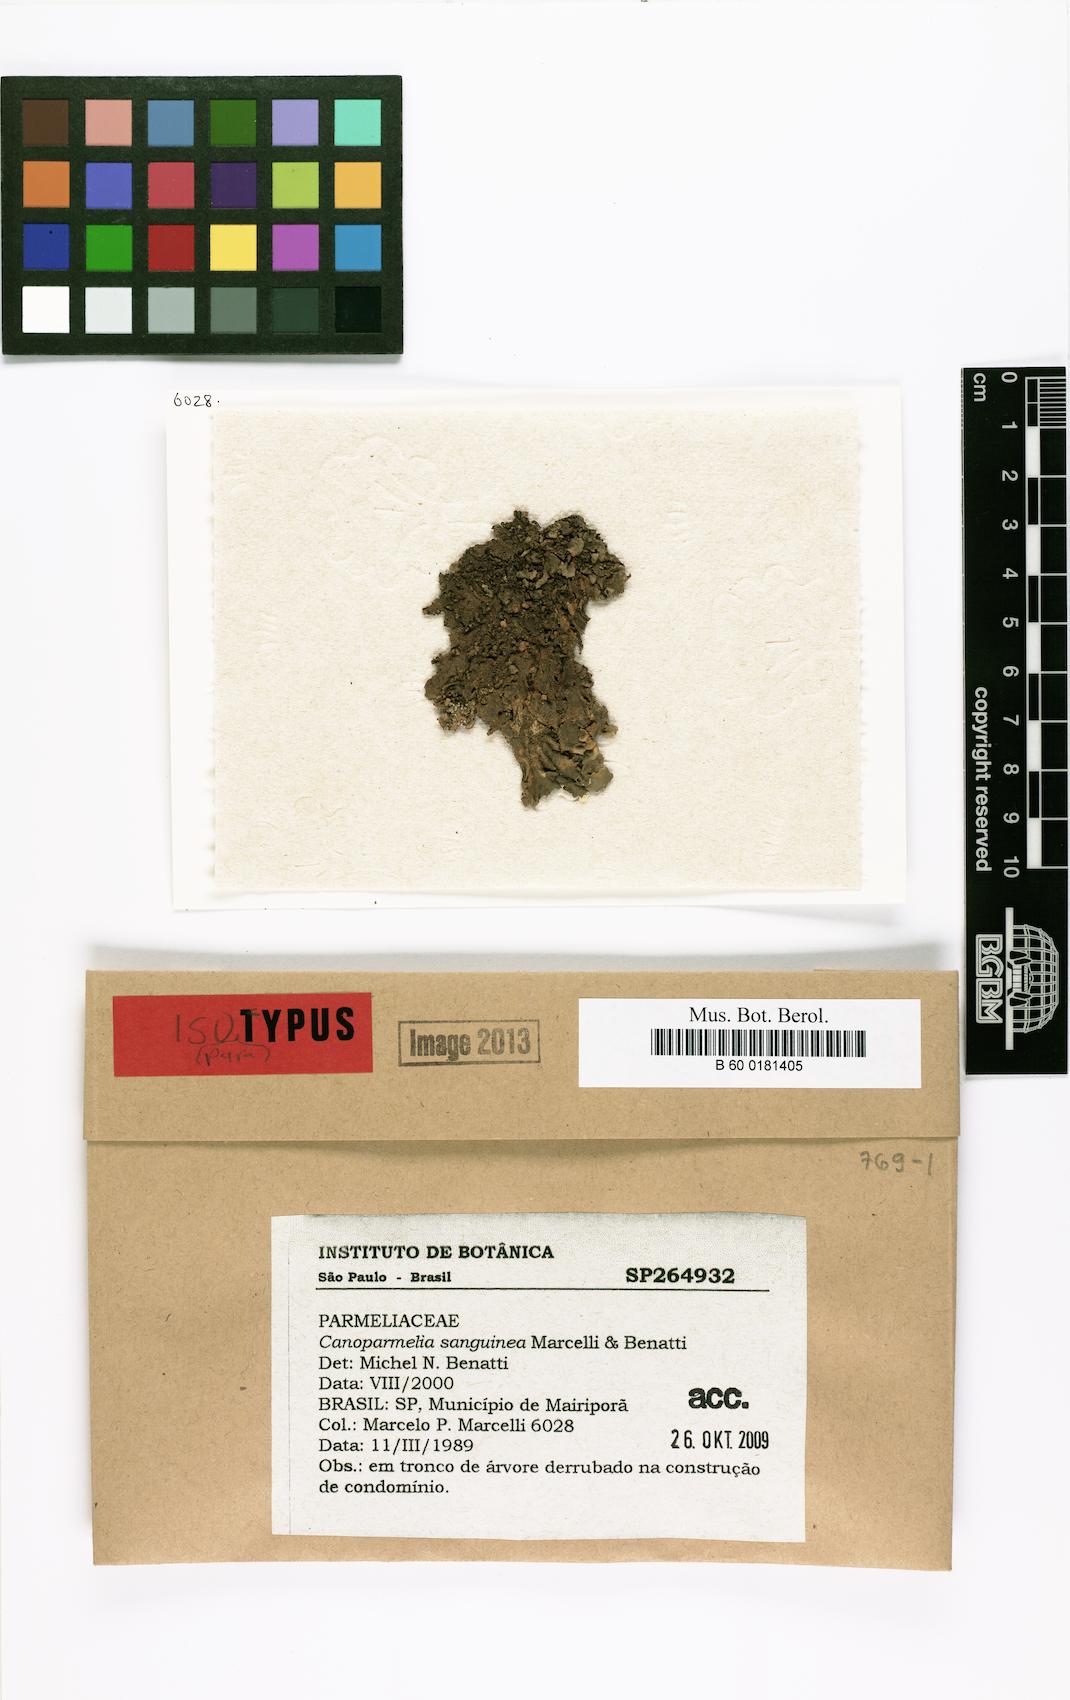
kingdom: Fungi
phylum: Ascomycota
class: Lecanoromycetes
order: Lecanorales
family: Parmeliaceae
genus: Canoparmelia
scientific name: Canoparmelia sanguinea
